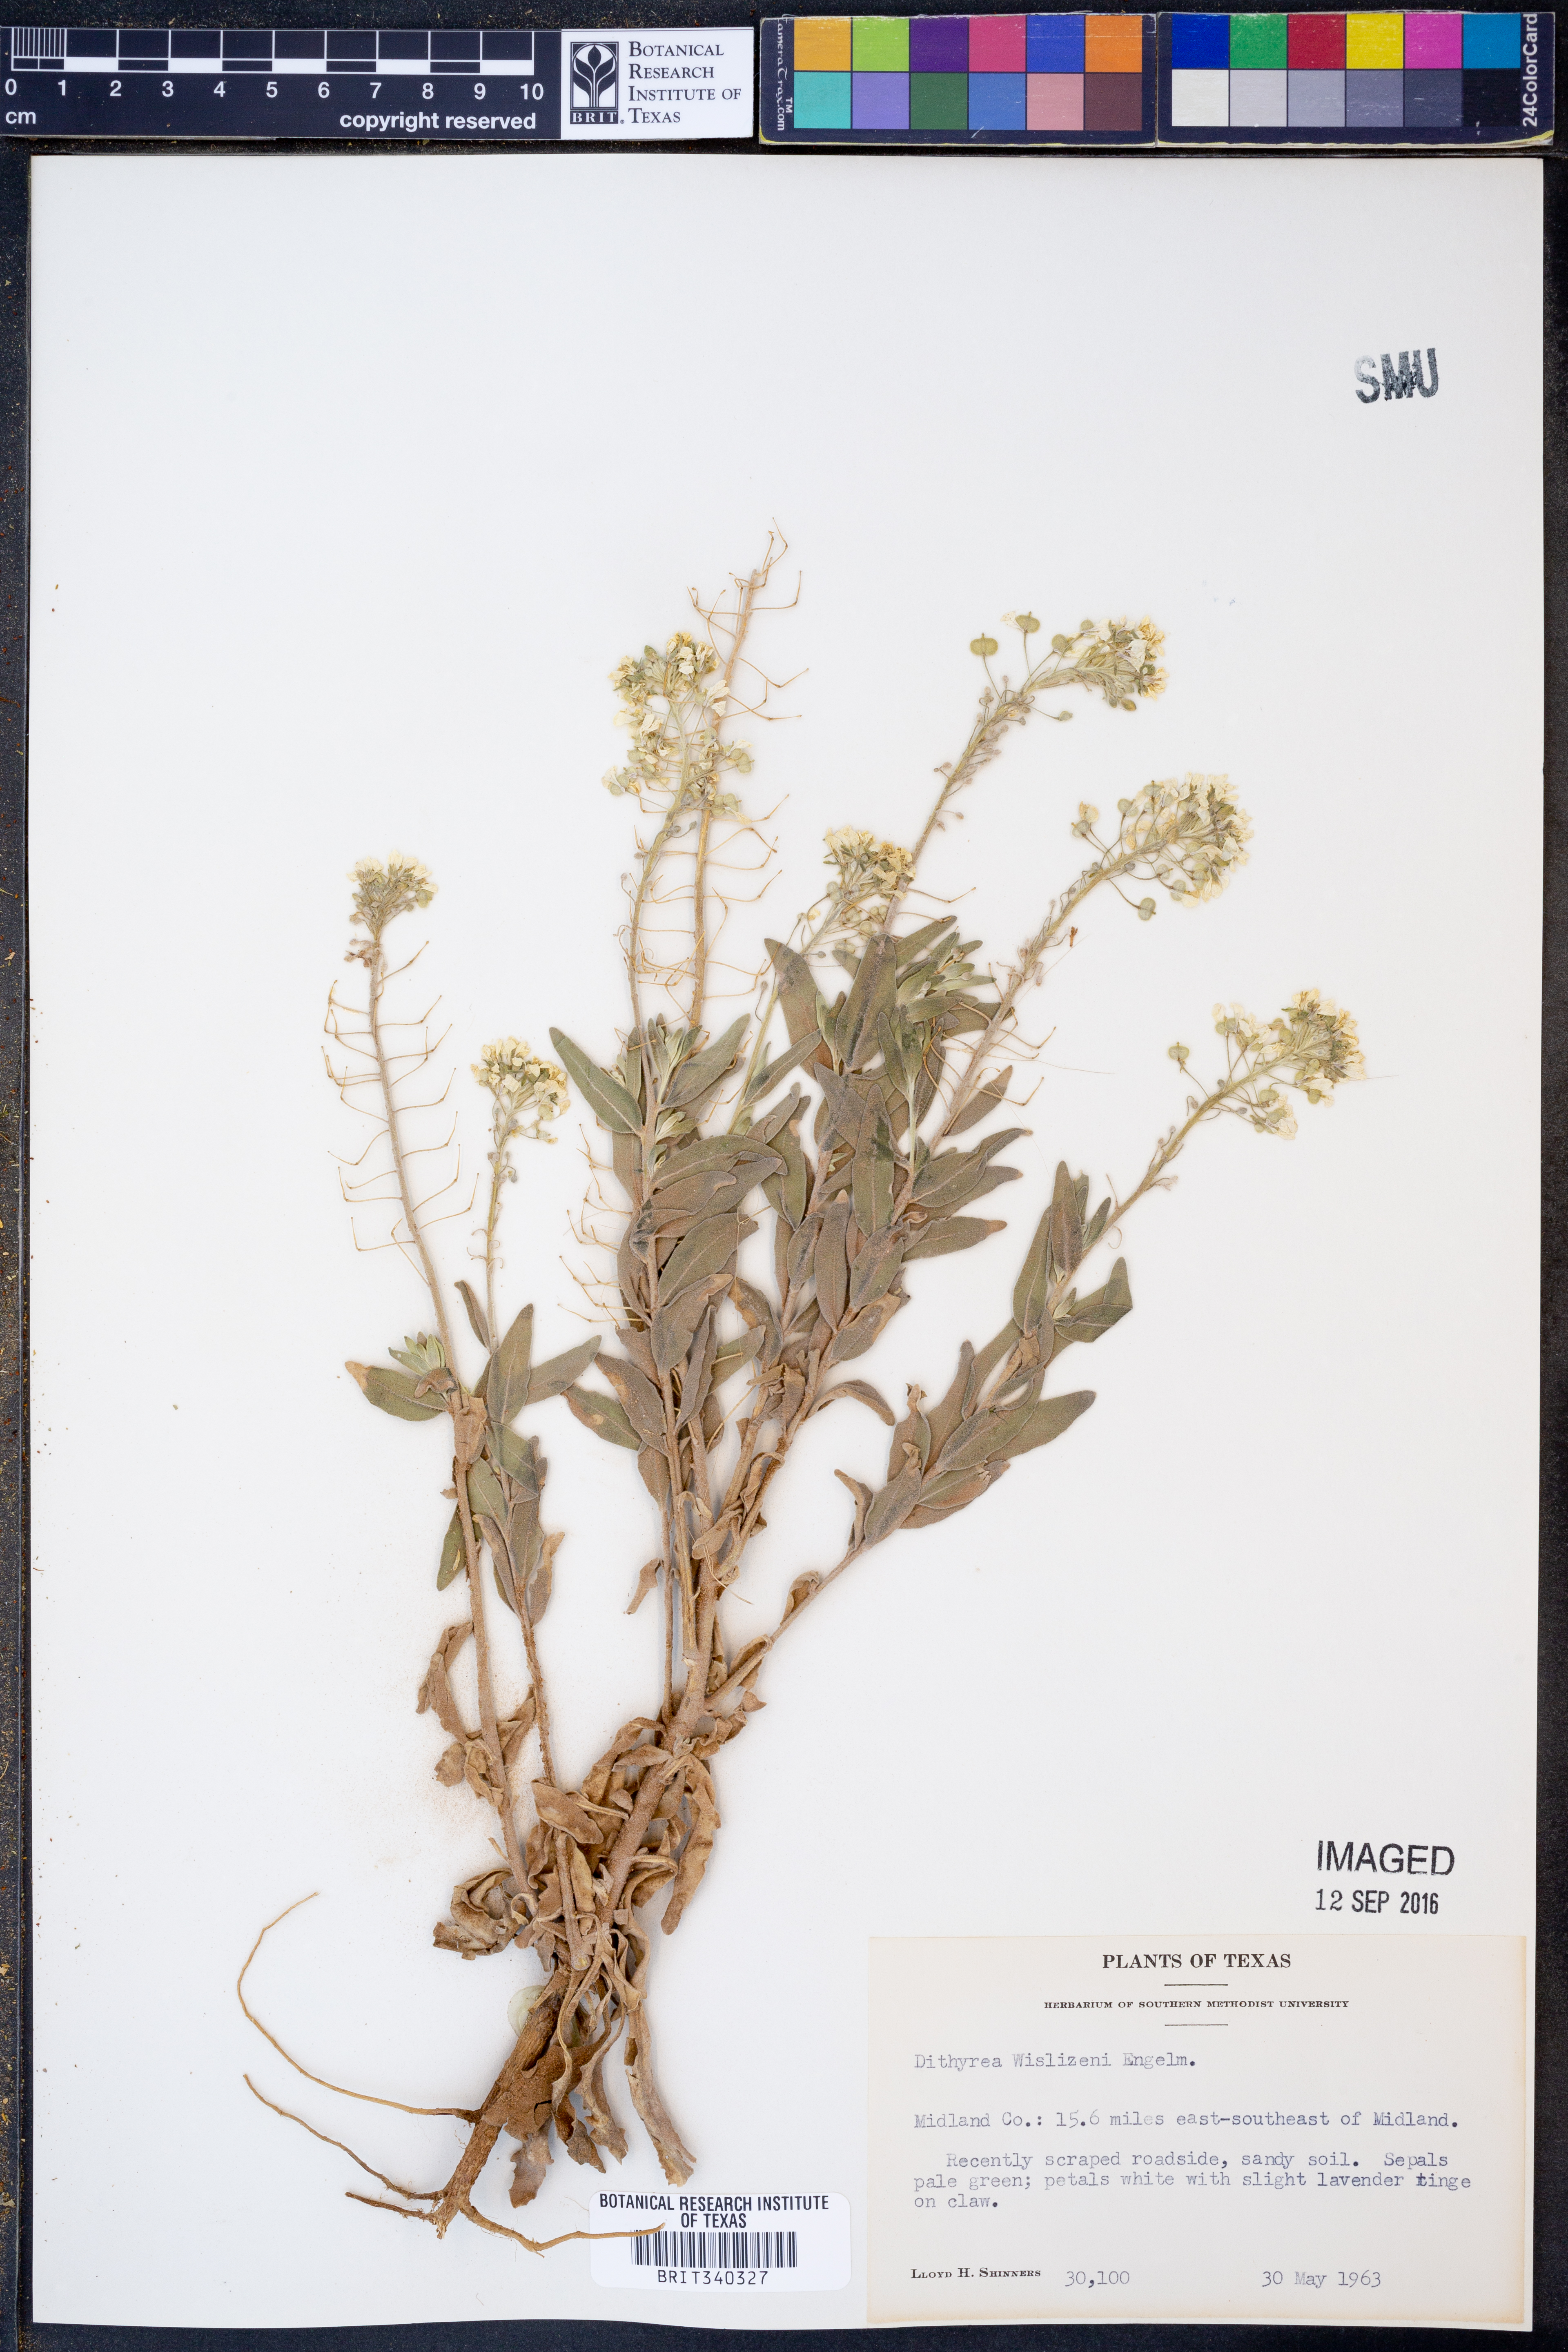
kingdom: Plantae
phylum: Tracheophyta
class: Magnoliopsida
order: Brassicales
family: Brassicaceae
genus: Dimorphocarpa
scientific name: Dimorphocarpa wislizenii
